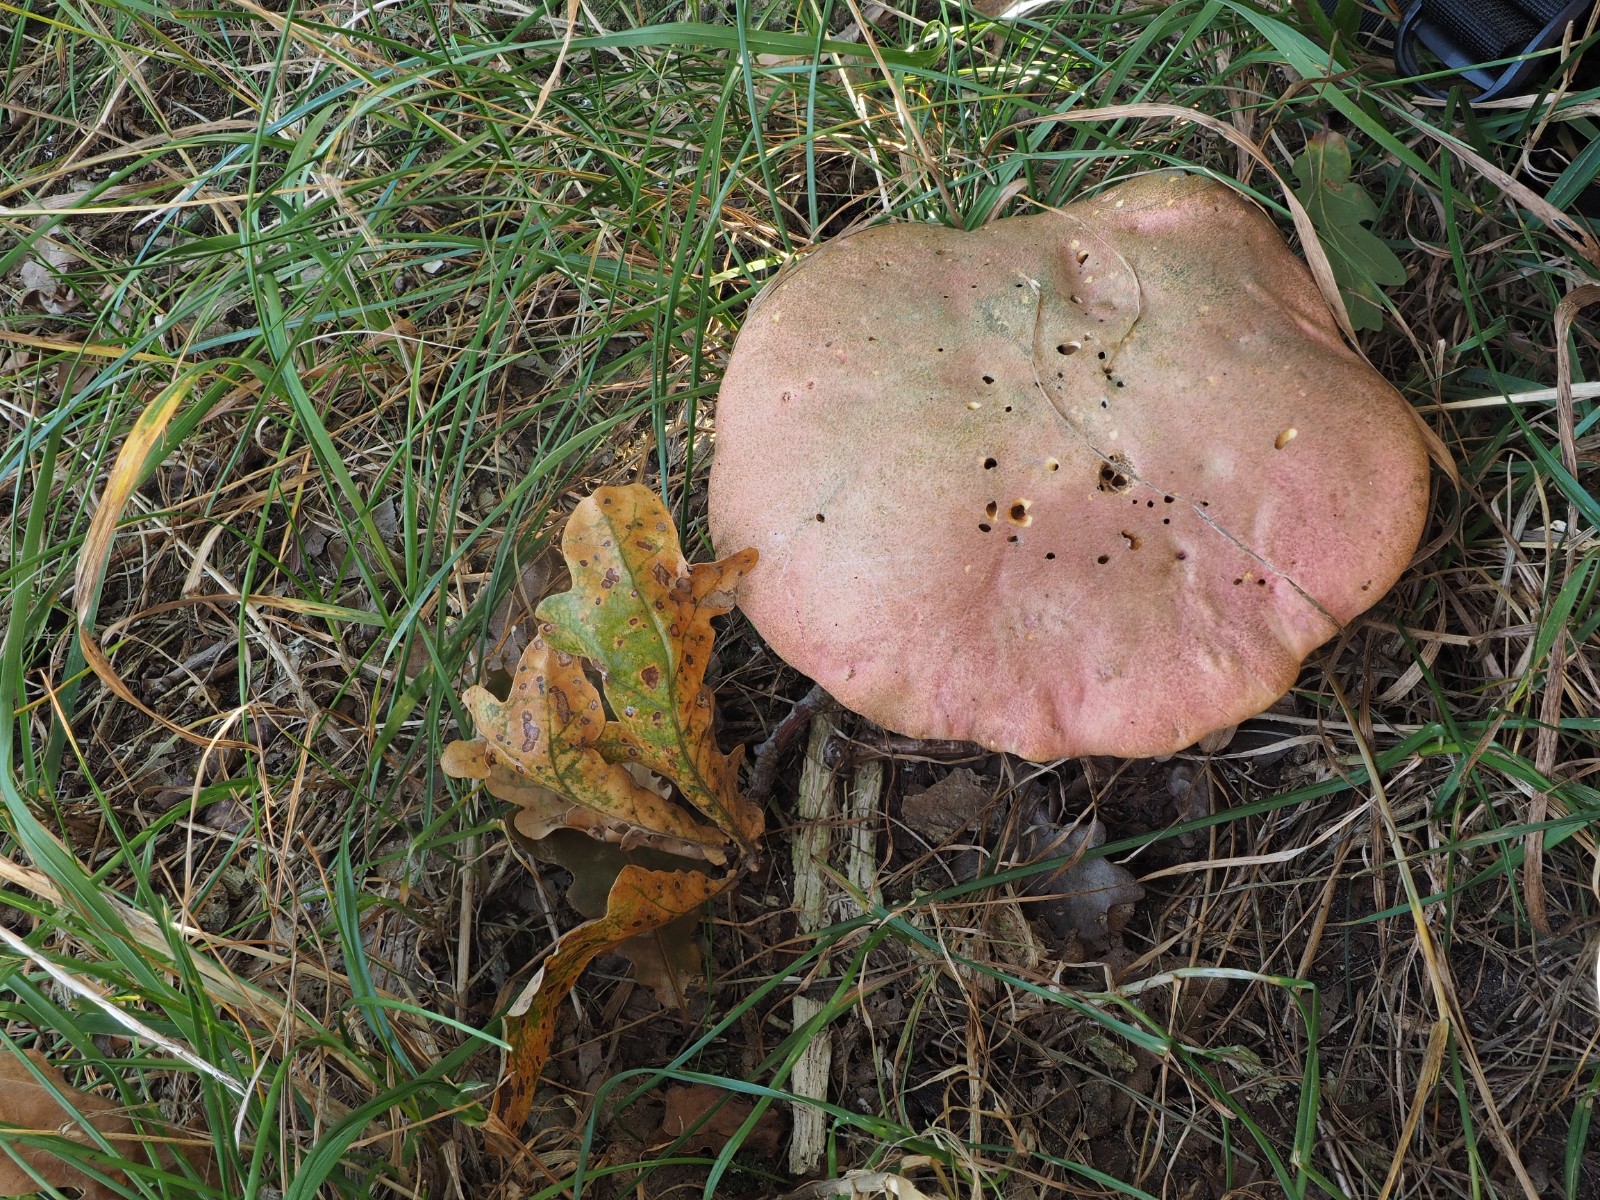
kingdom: Fungi
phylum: Basidiomycota
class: Agaricomycetes
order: Boletales
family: Boletaceae
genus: Rubroboletus
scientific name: Rubroboletus legaliae
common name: djævle-rørhat
